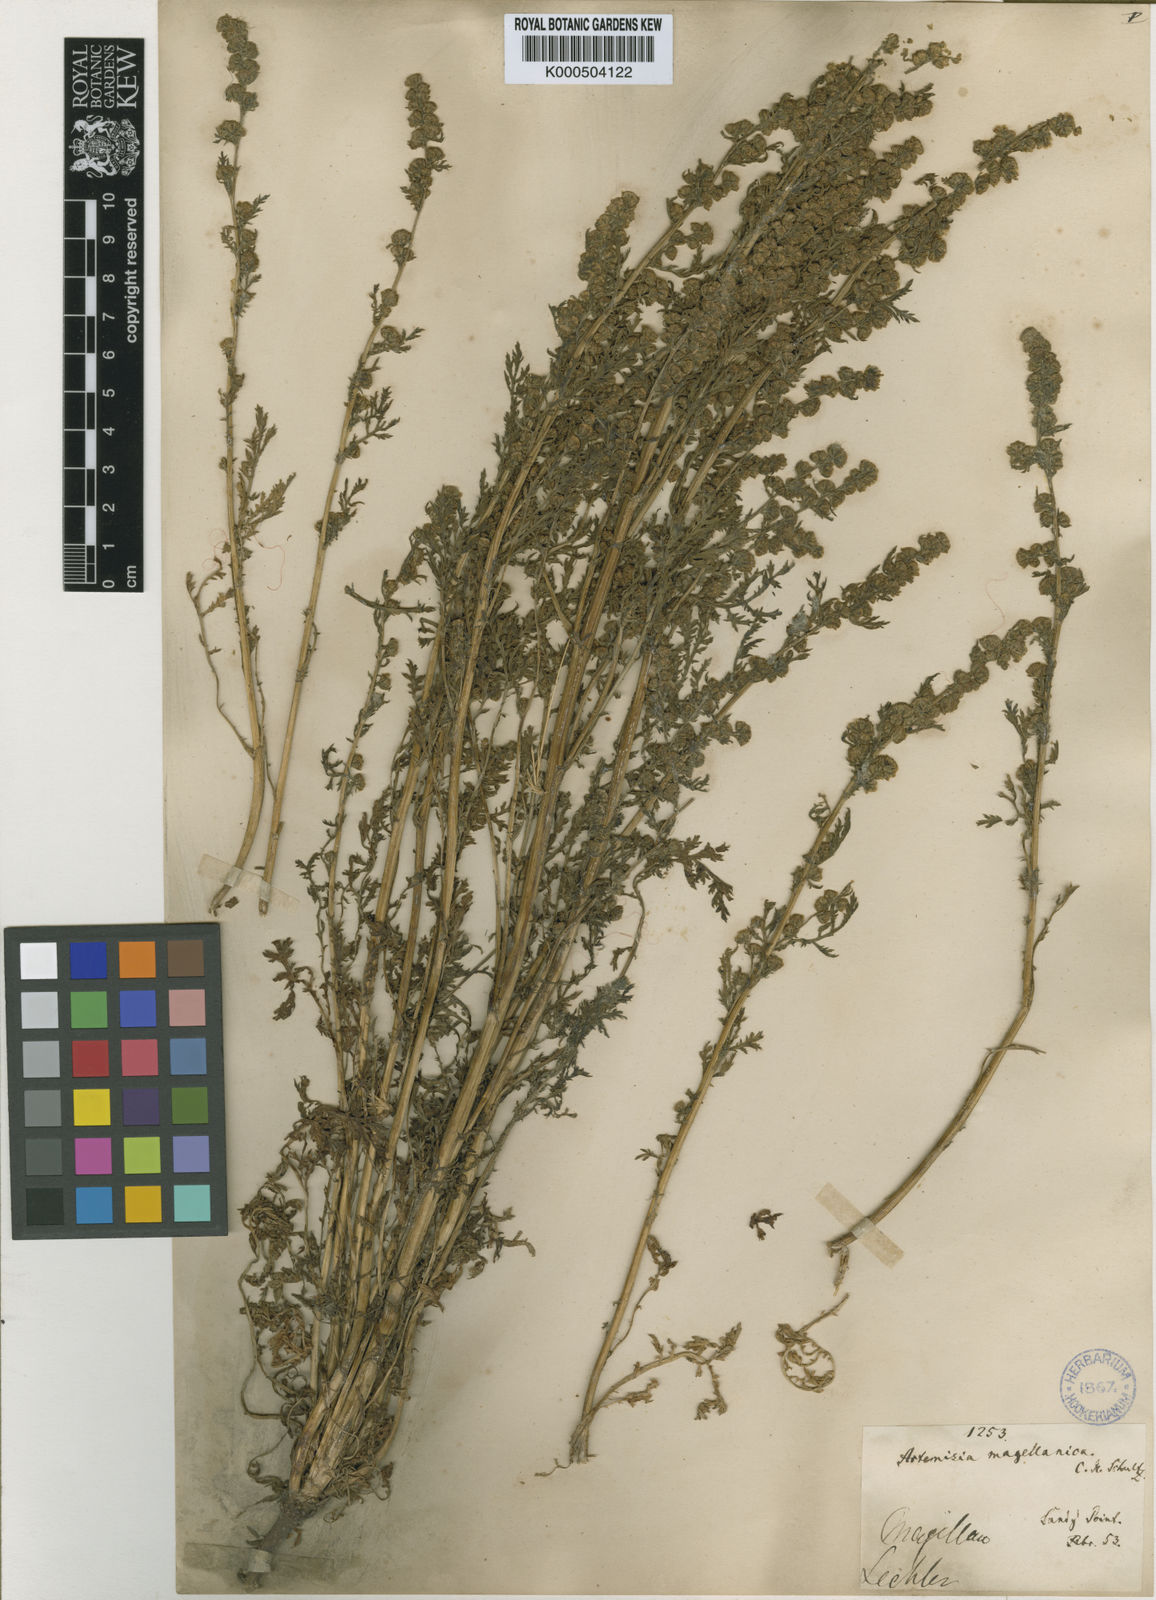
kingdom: Plantae
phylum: Tracheophyta
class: Magnoliopsida
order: Asterales
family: Asteraceae
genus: Artemisia
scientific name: Artemisia biennis
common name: Biennial wormwood
